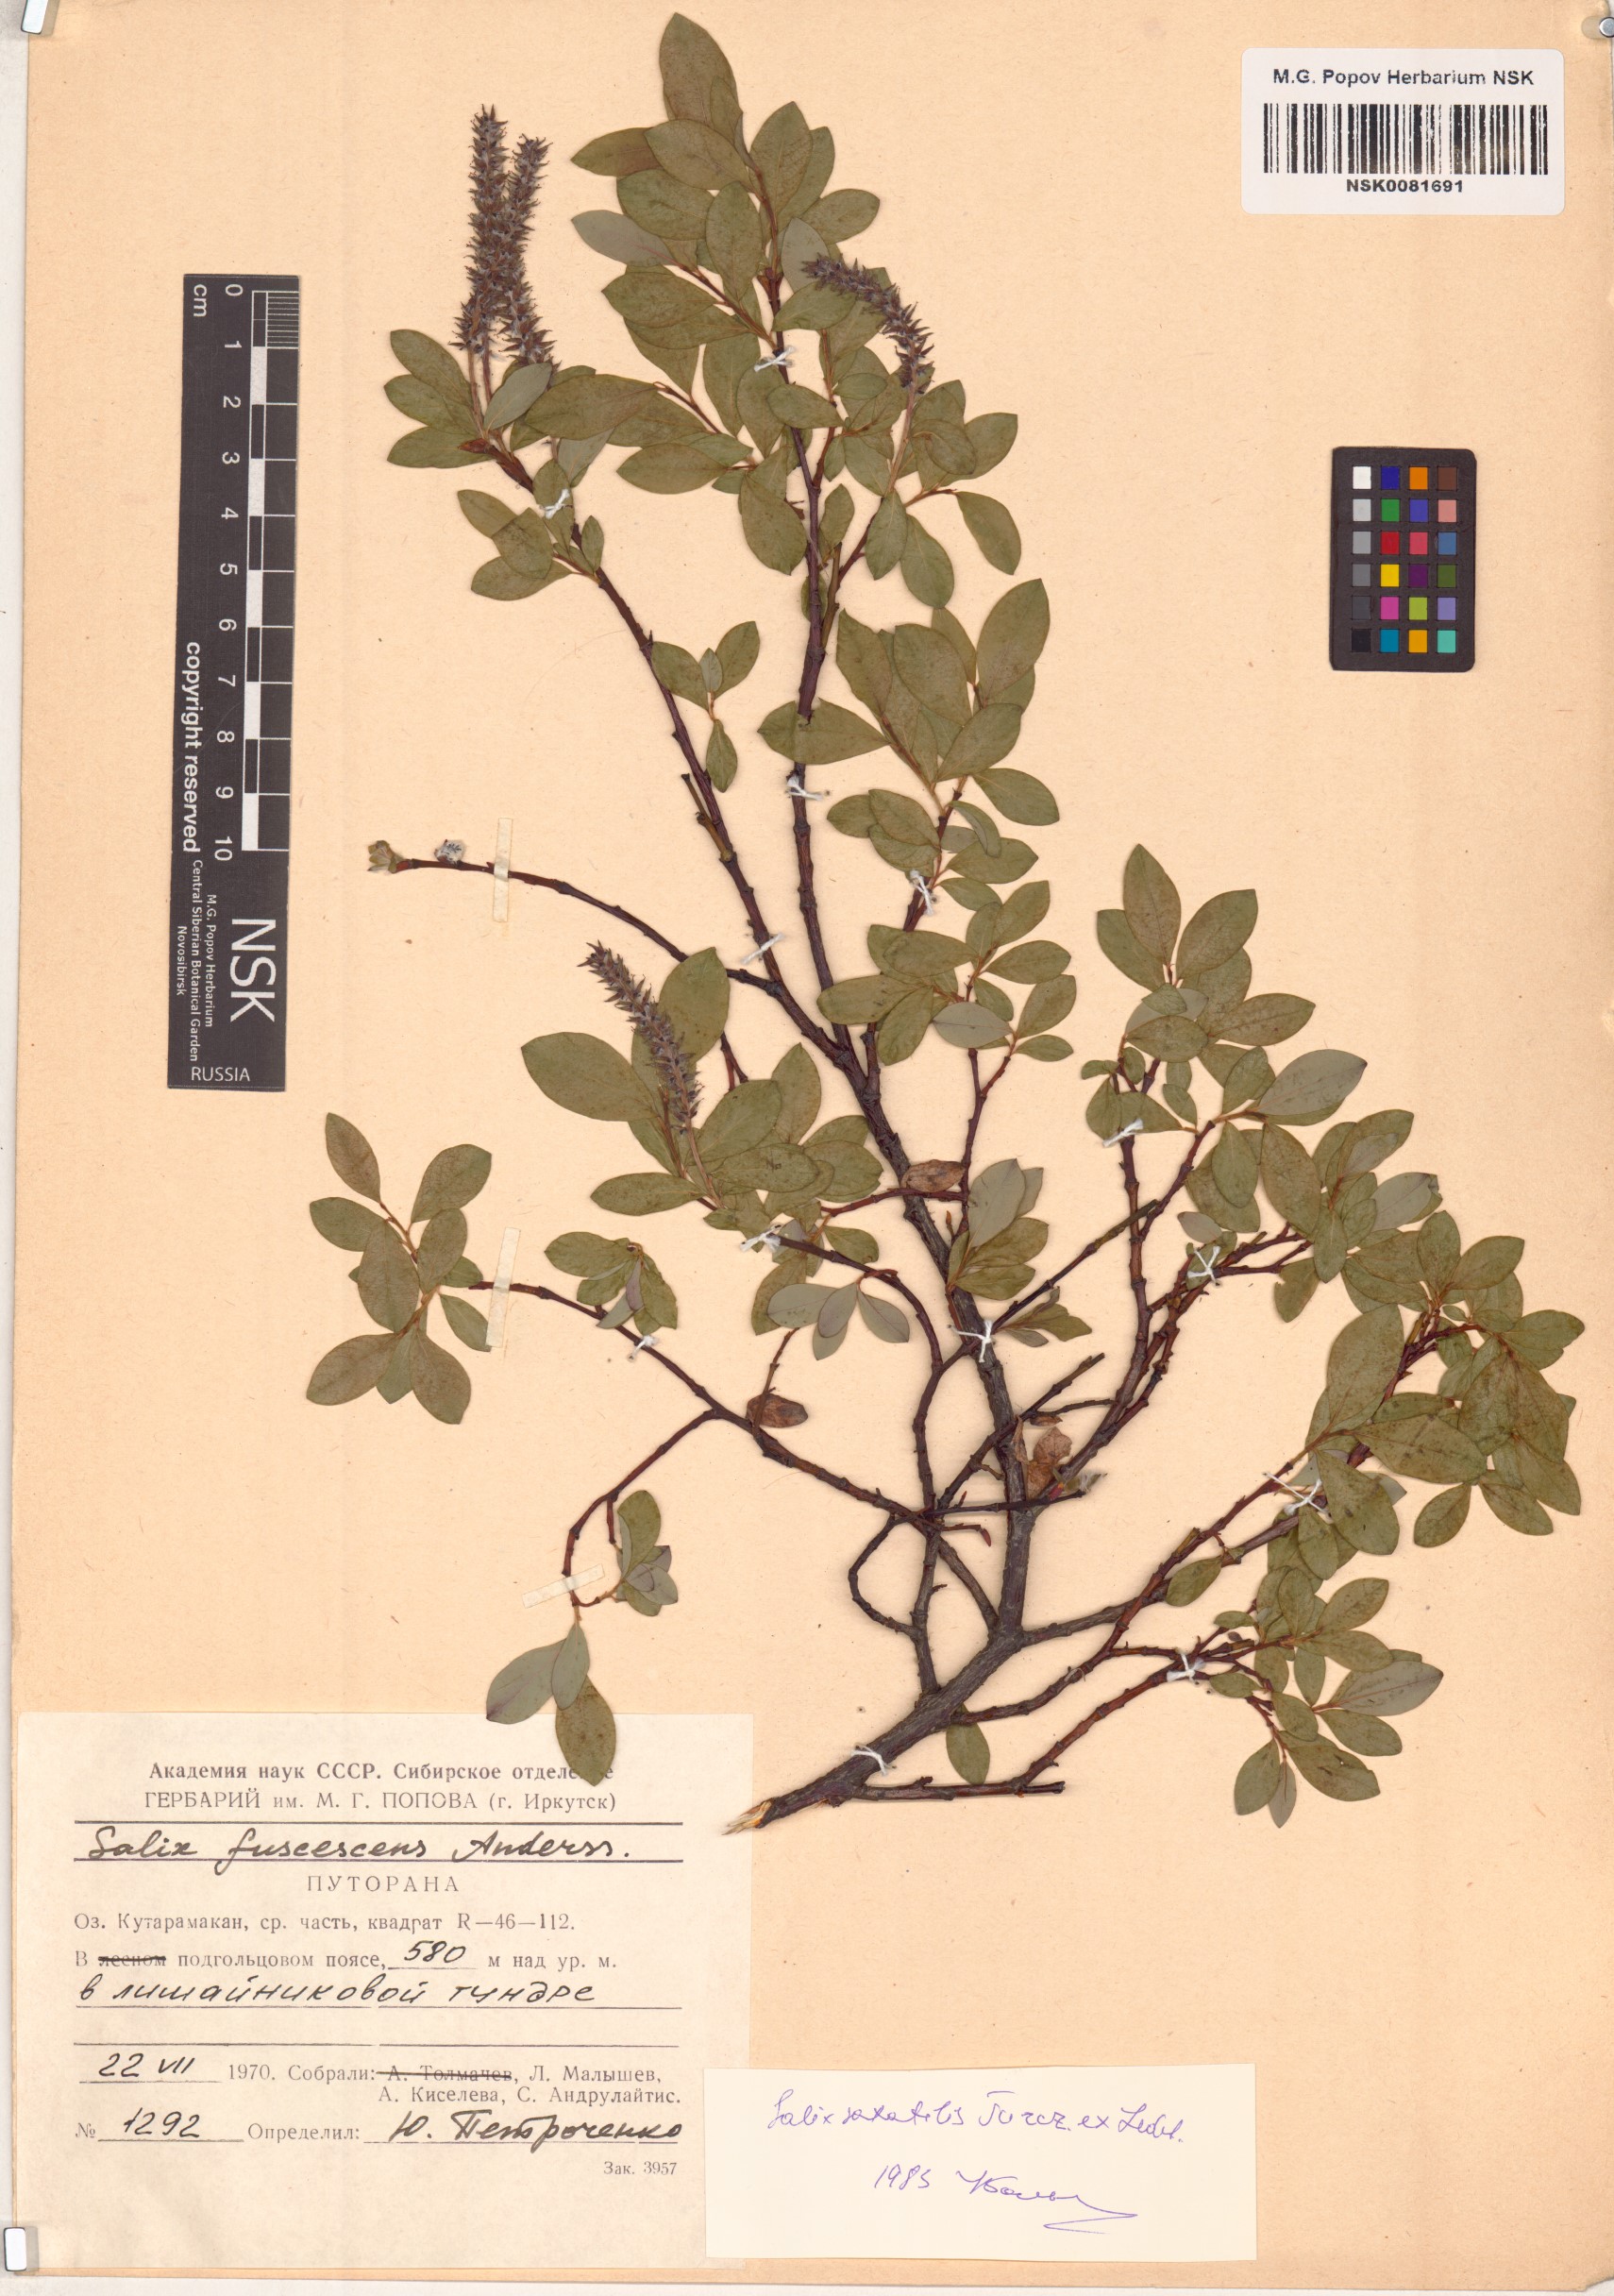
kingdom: Plantae
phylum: Tracheophyta
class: Magnoliopsida
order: Malpighiales
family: Salicaceae
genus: Salix
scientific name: Salix saxatilis
